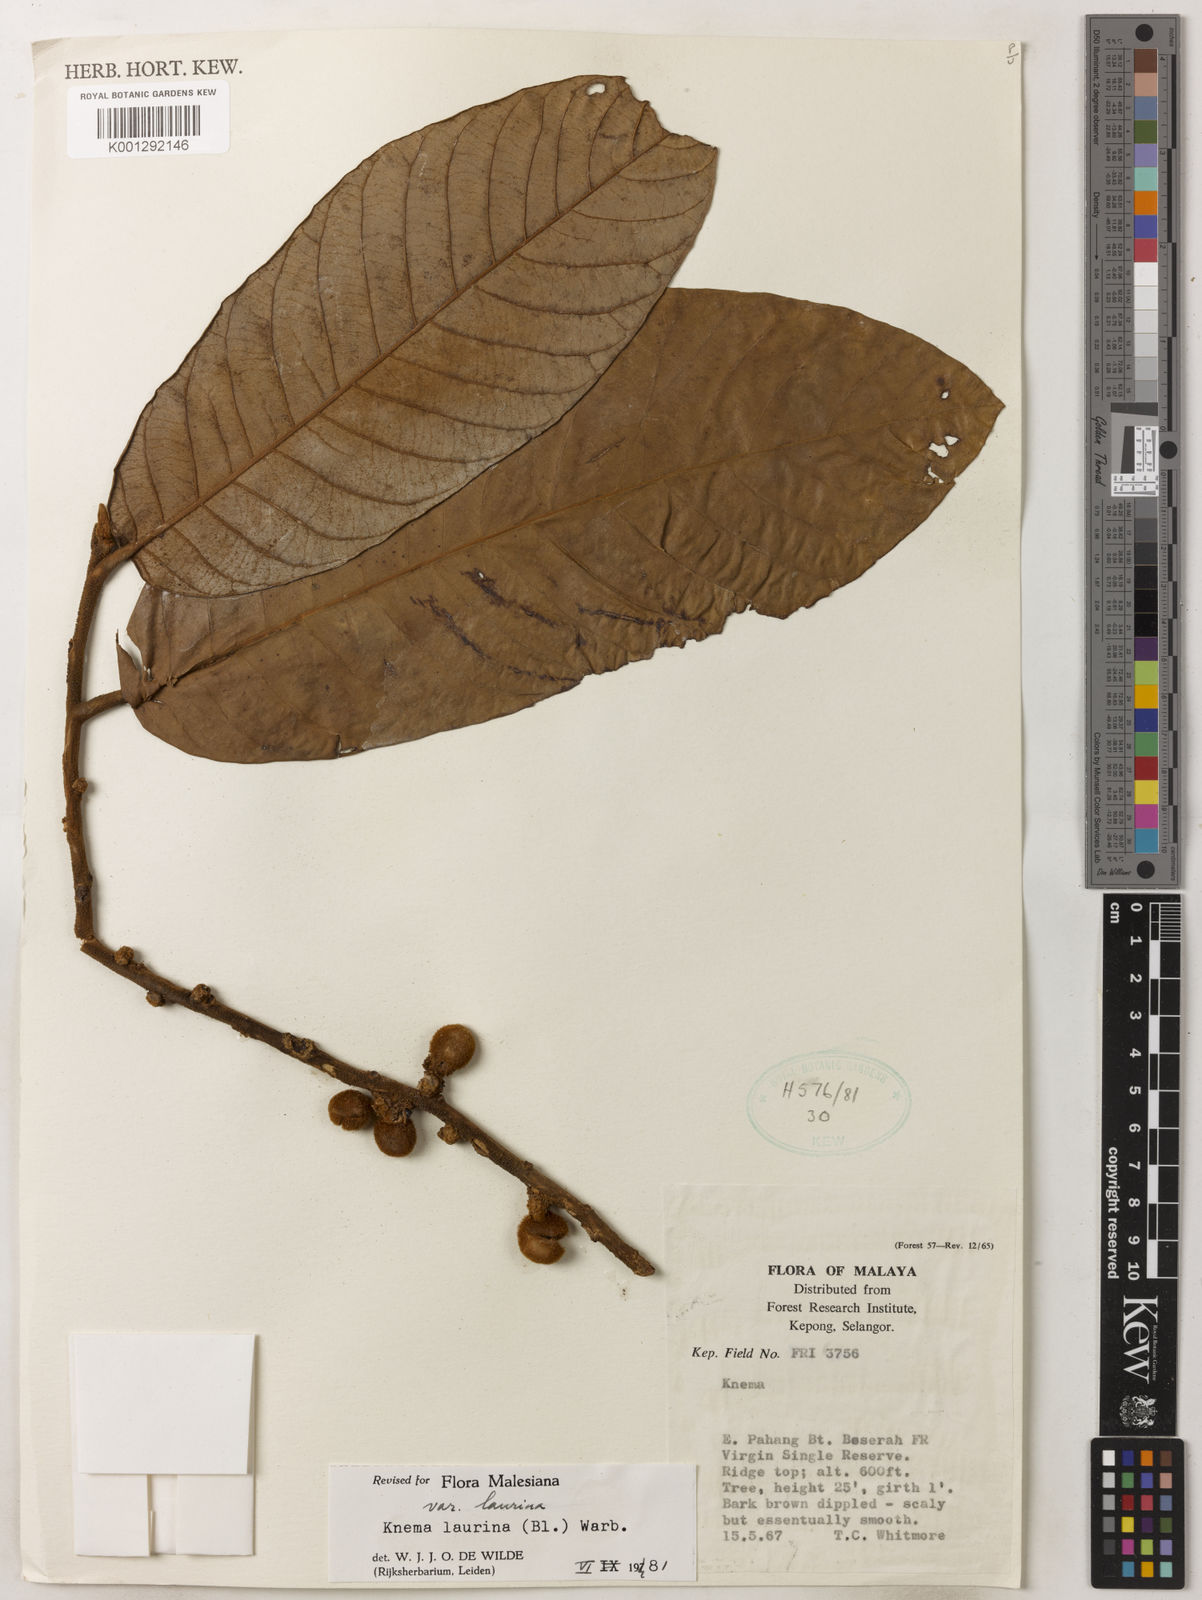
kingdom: Plantae
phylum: Tracheophyta
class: Magnoliopsida
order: Magnoliales
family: Myristicaceae
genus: Knema
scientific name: Knema laurina
